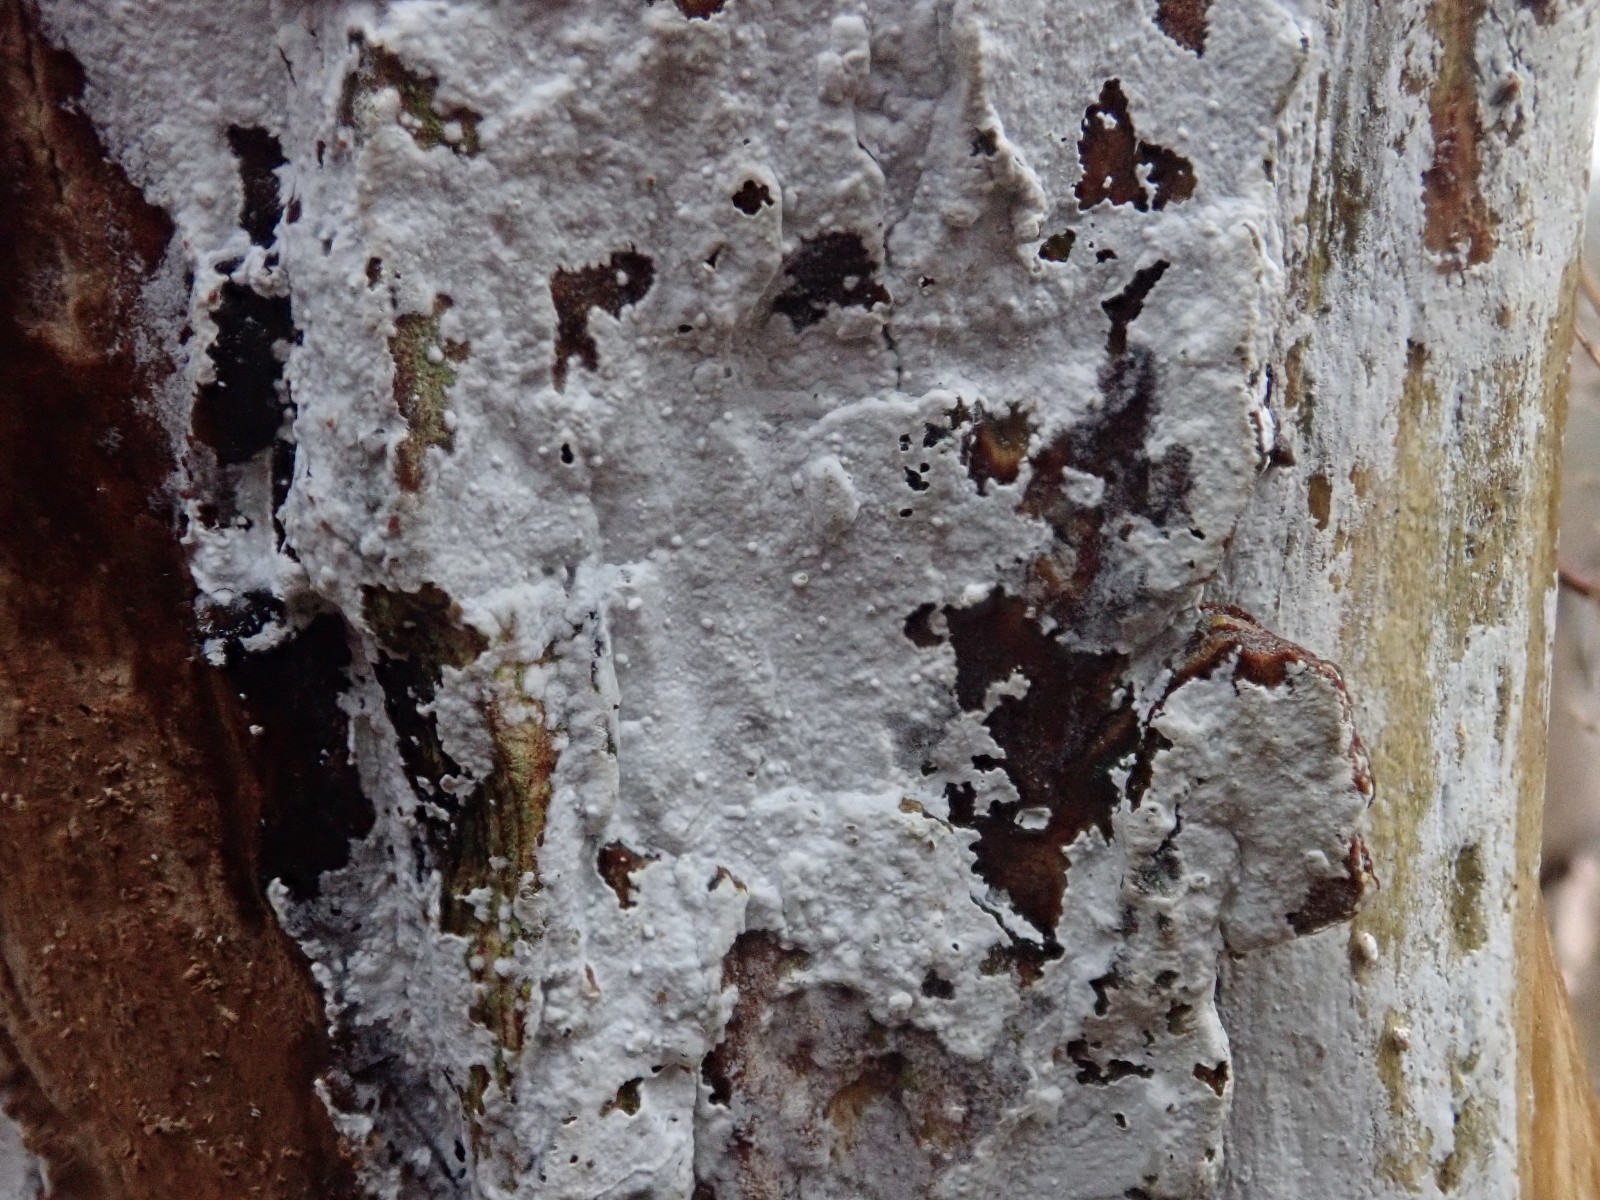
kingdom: Fungi
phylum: Basidiomycota
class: Agaricomycetes
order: Corticiales
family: Corticiaceae
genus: Lyomyces
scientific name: Lyomyces sambuci
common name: almindelig hyldehinde
